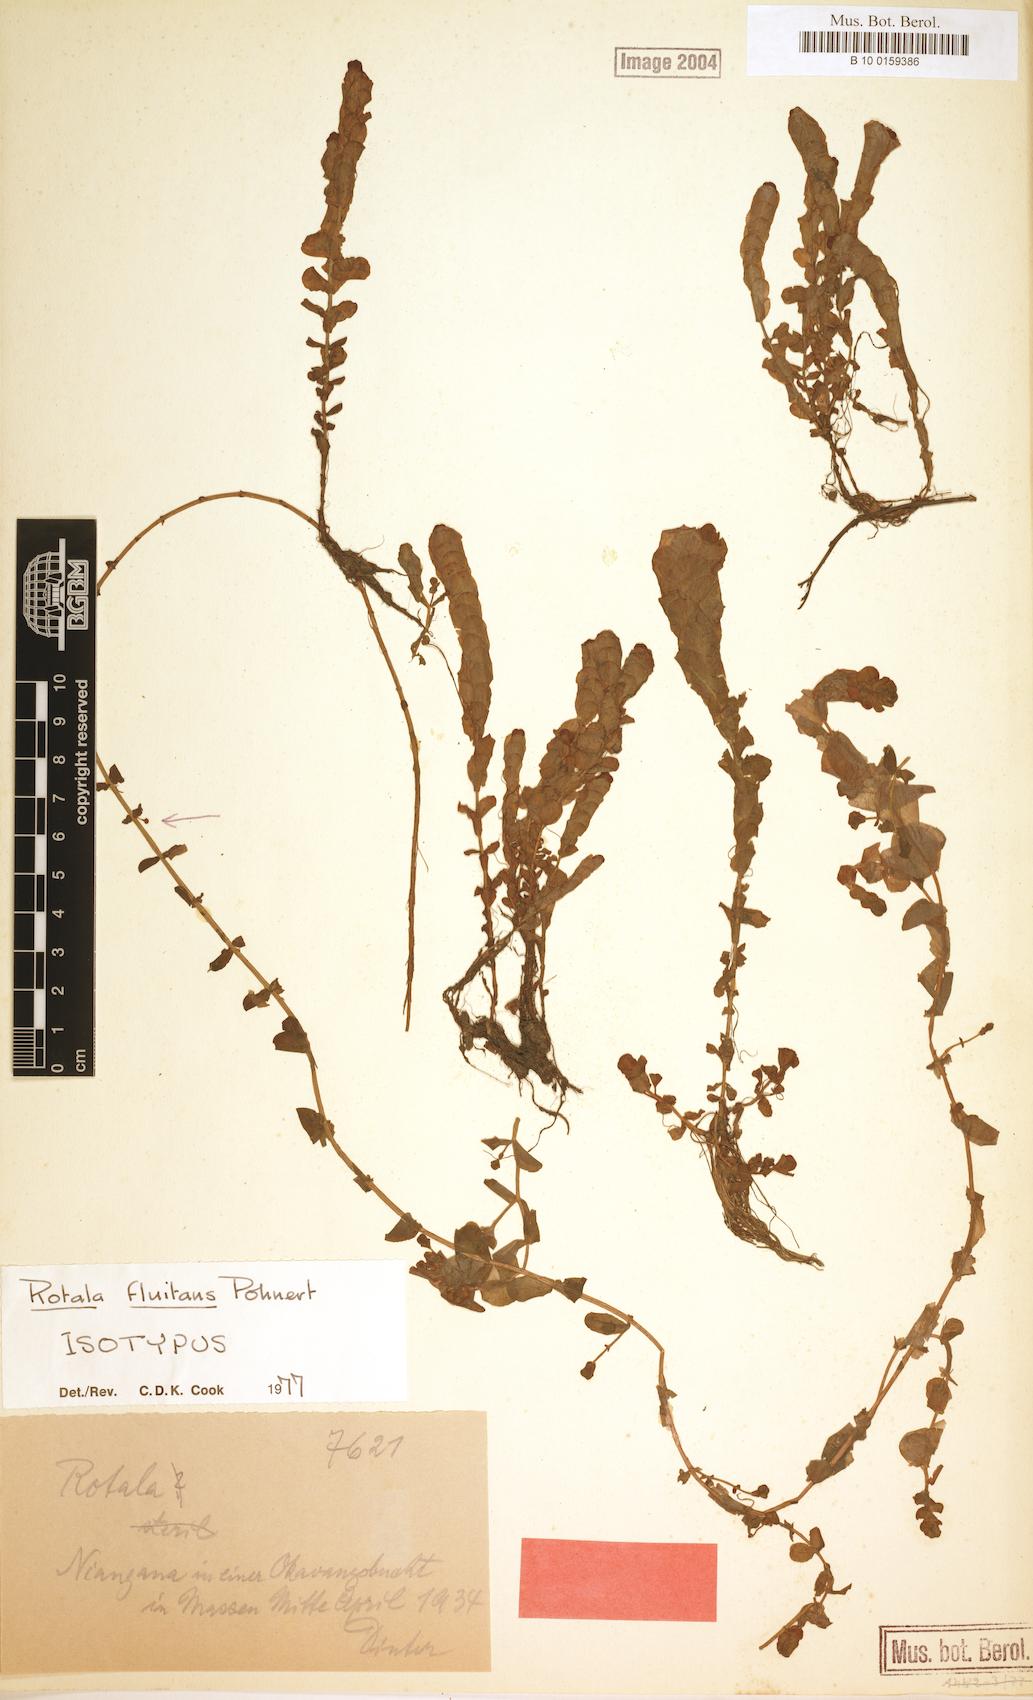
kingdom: Plantae
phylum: Tracheophyta
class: Magnoliopsida
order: Myrtales
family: Lythraceae
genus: Rotala
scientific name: Rotala fluitans
